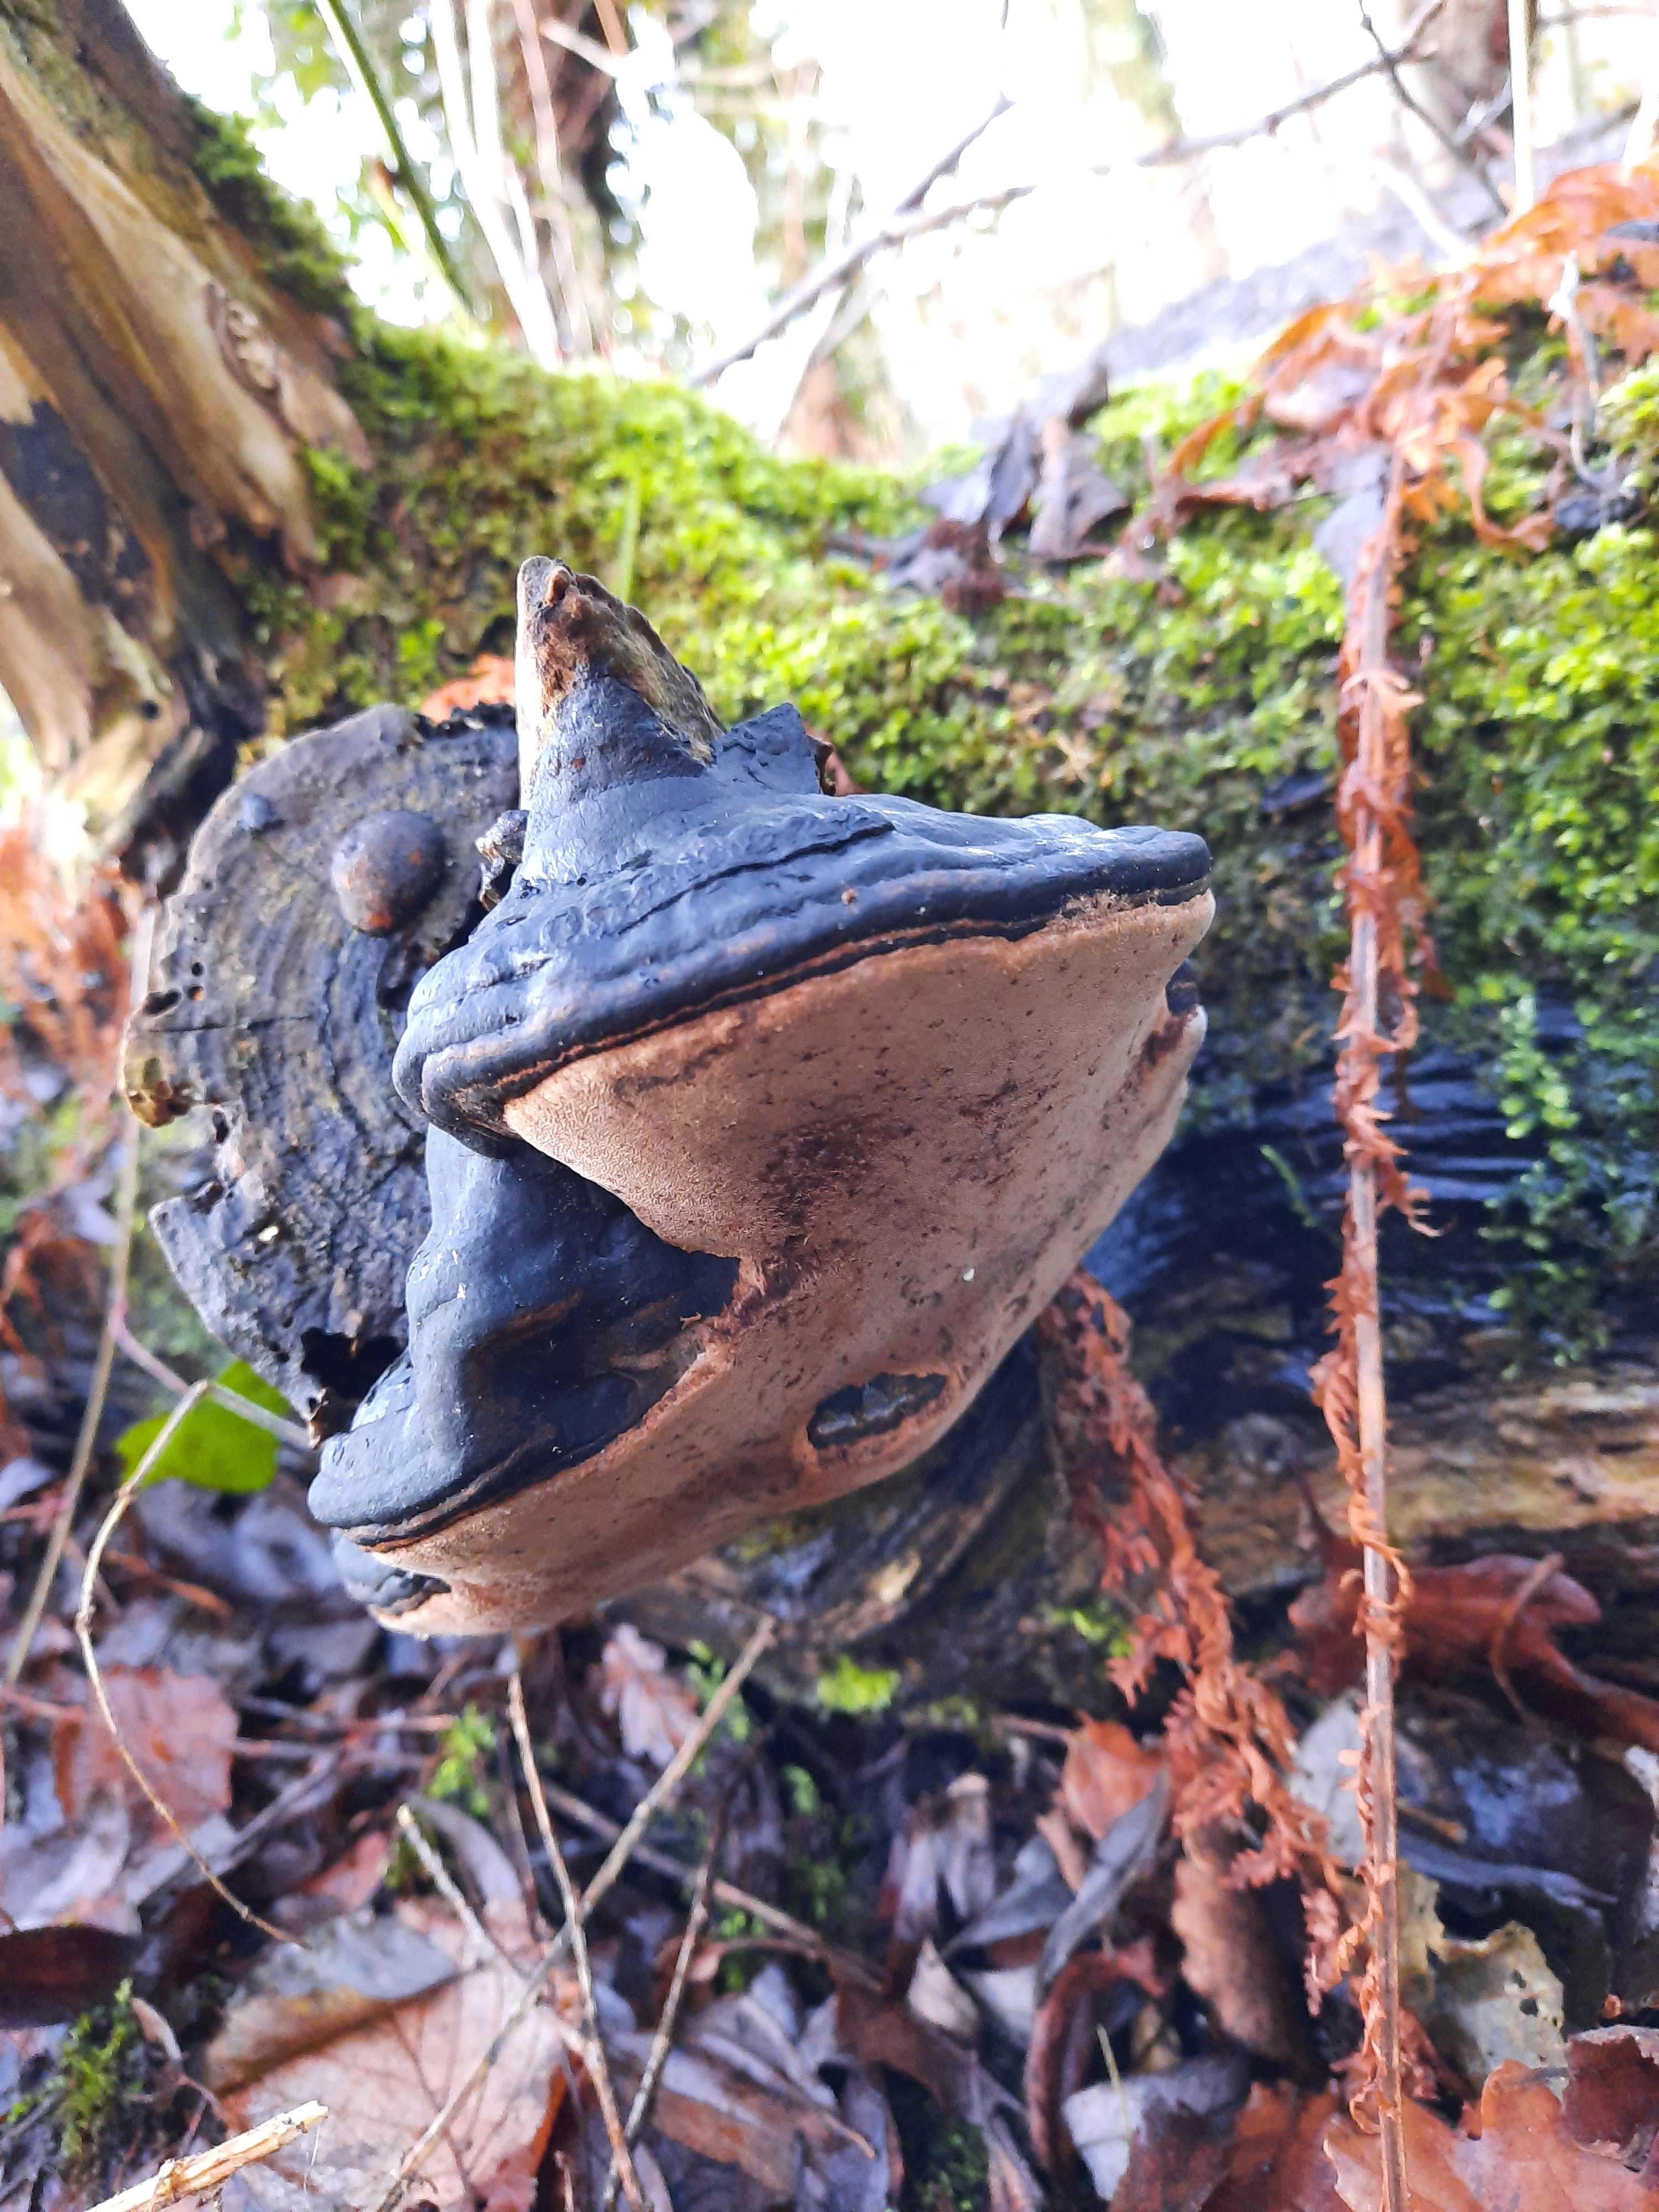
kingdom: Fungi
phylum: Basidiomycota
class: Agaricomycetes
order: Hymenochaetales
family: Hymenochaetaceae
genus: Phellinus
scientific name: Phellinus igniarius
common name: almindelig ildporesvamp
